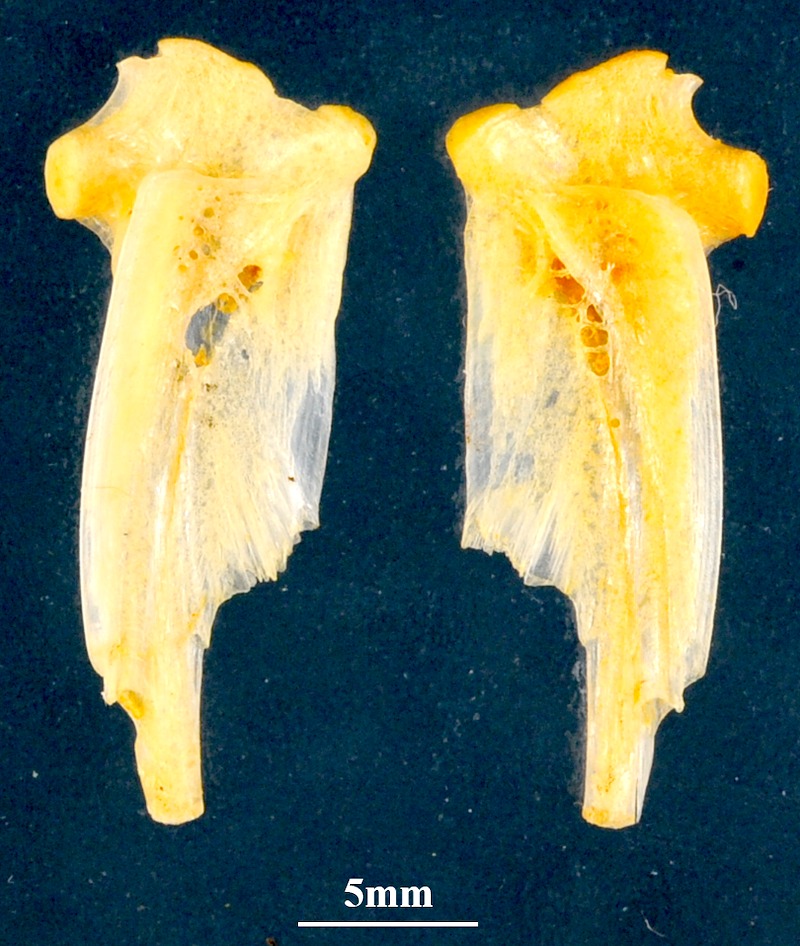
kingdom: Animalia
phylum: Chordata
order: Perciformes
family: Carangidae
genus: Trachurus
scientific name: Trachurus trachurus
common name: Horse mackerel
